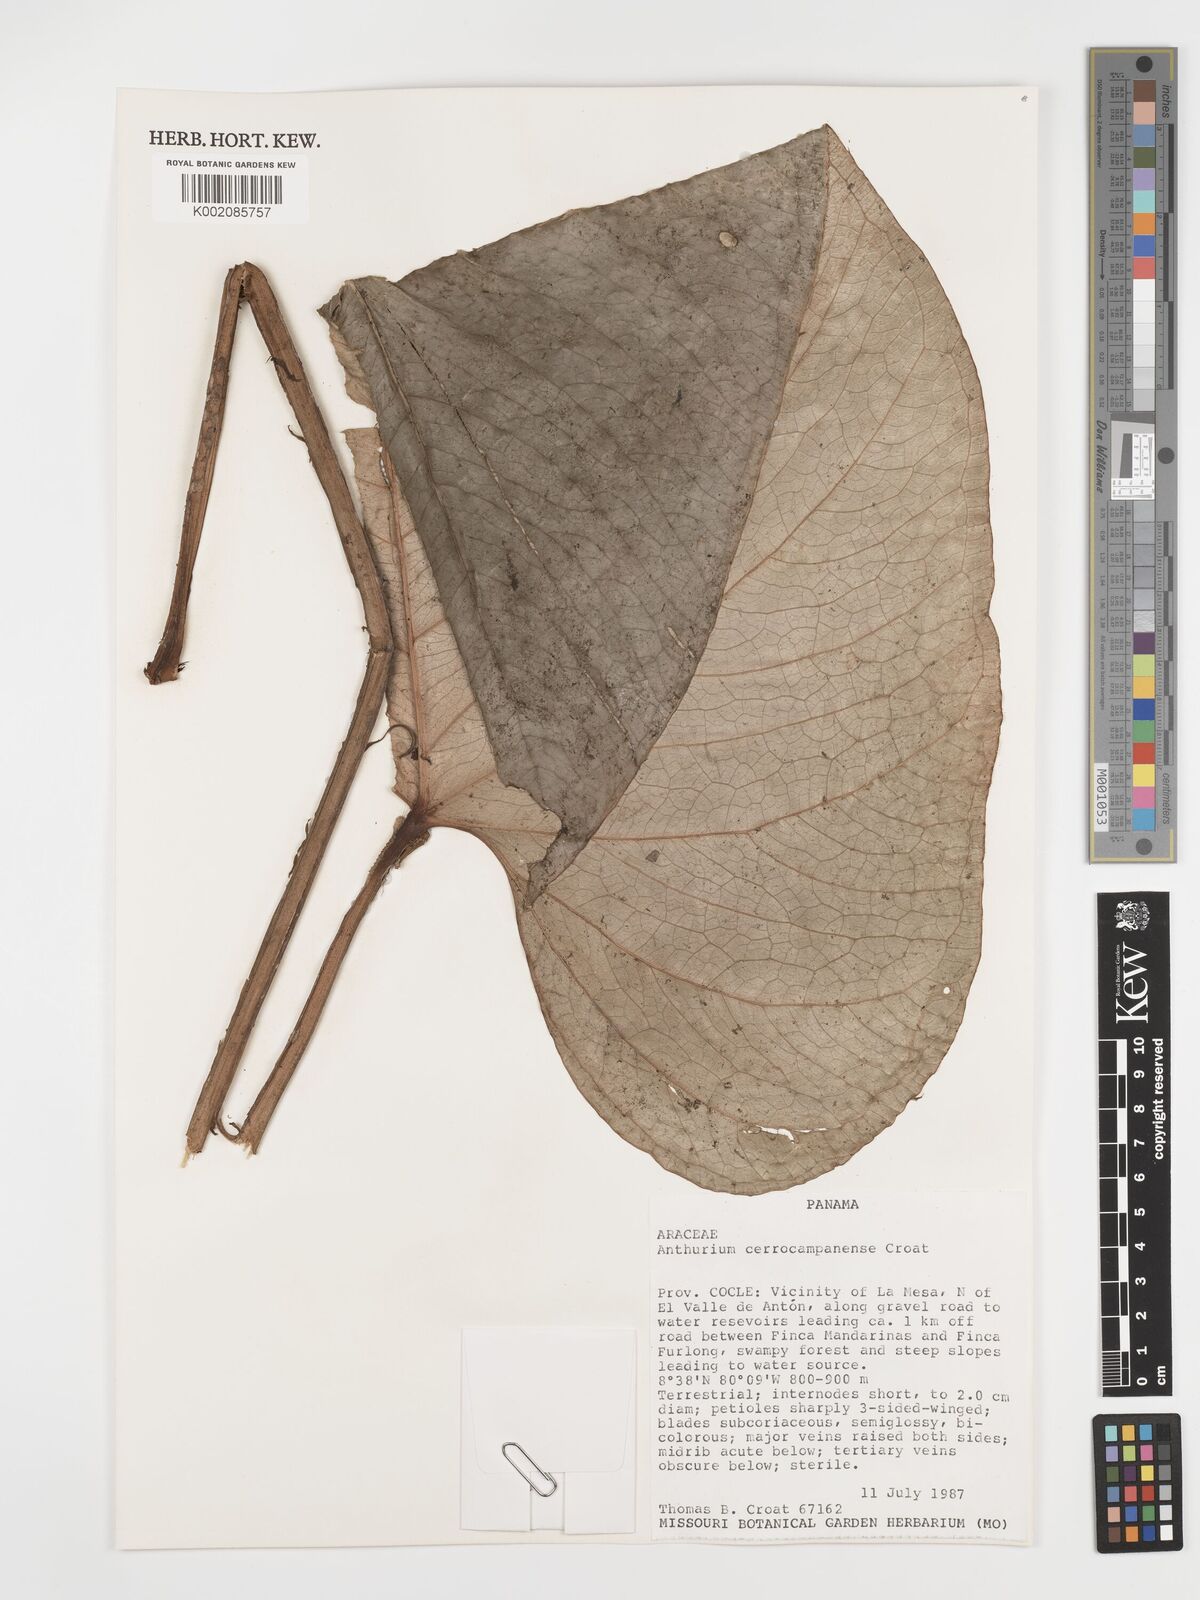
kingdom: Plantae
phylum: Tracheophyta
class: Liliopsida
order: Alismatales
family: Araceae
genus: Anthurium
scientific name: Anthurium cerrocampanense
